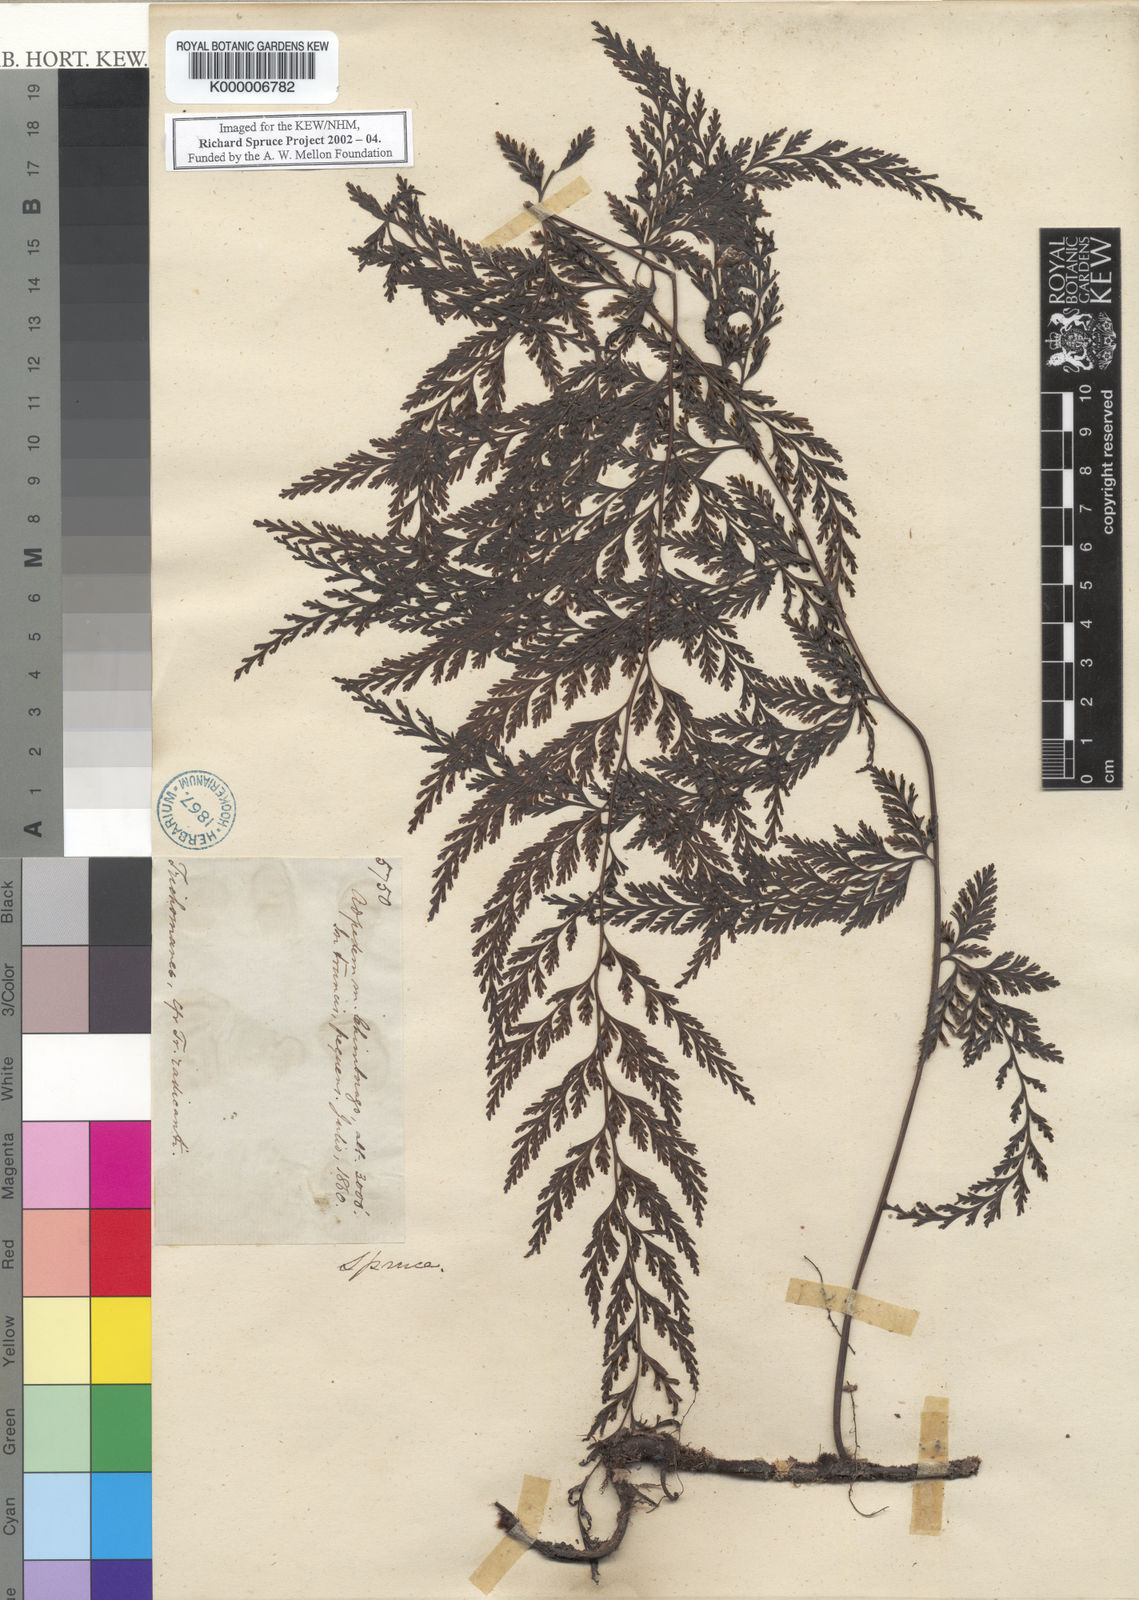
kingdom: Plantae
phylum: Tracheophyta
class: Polypodiopsida
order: Hymenophyllales
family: Hymenophyllaceae
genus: Trichomanes
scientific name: Trichomanes
